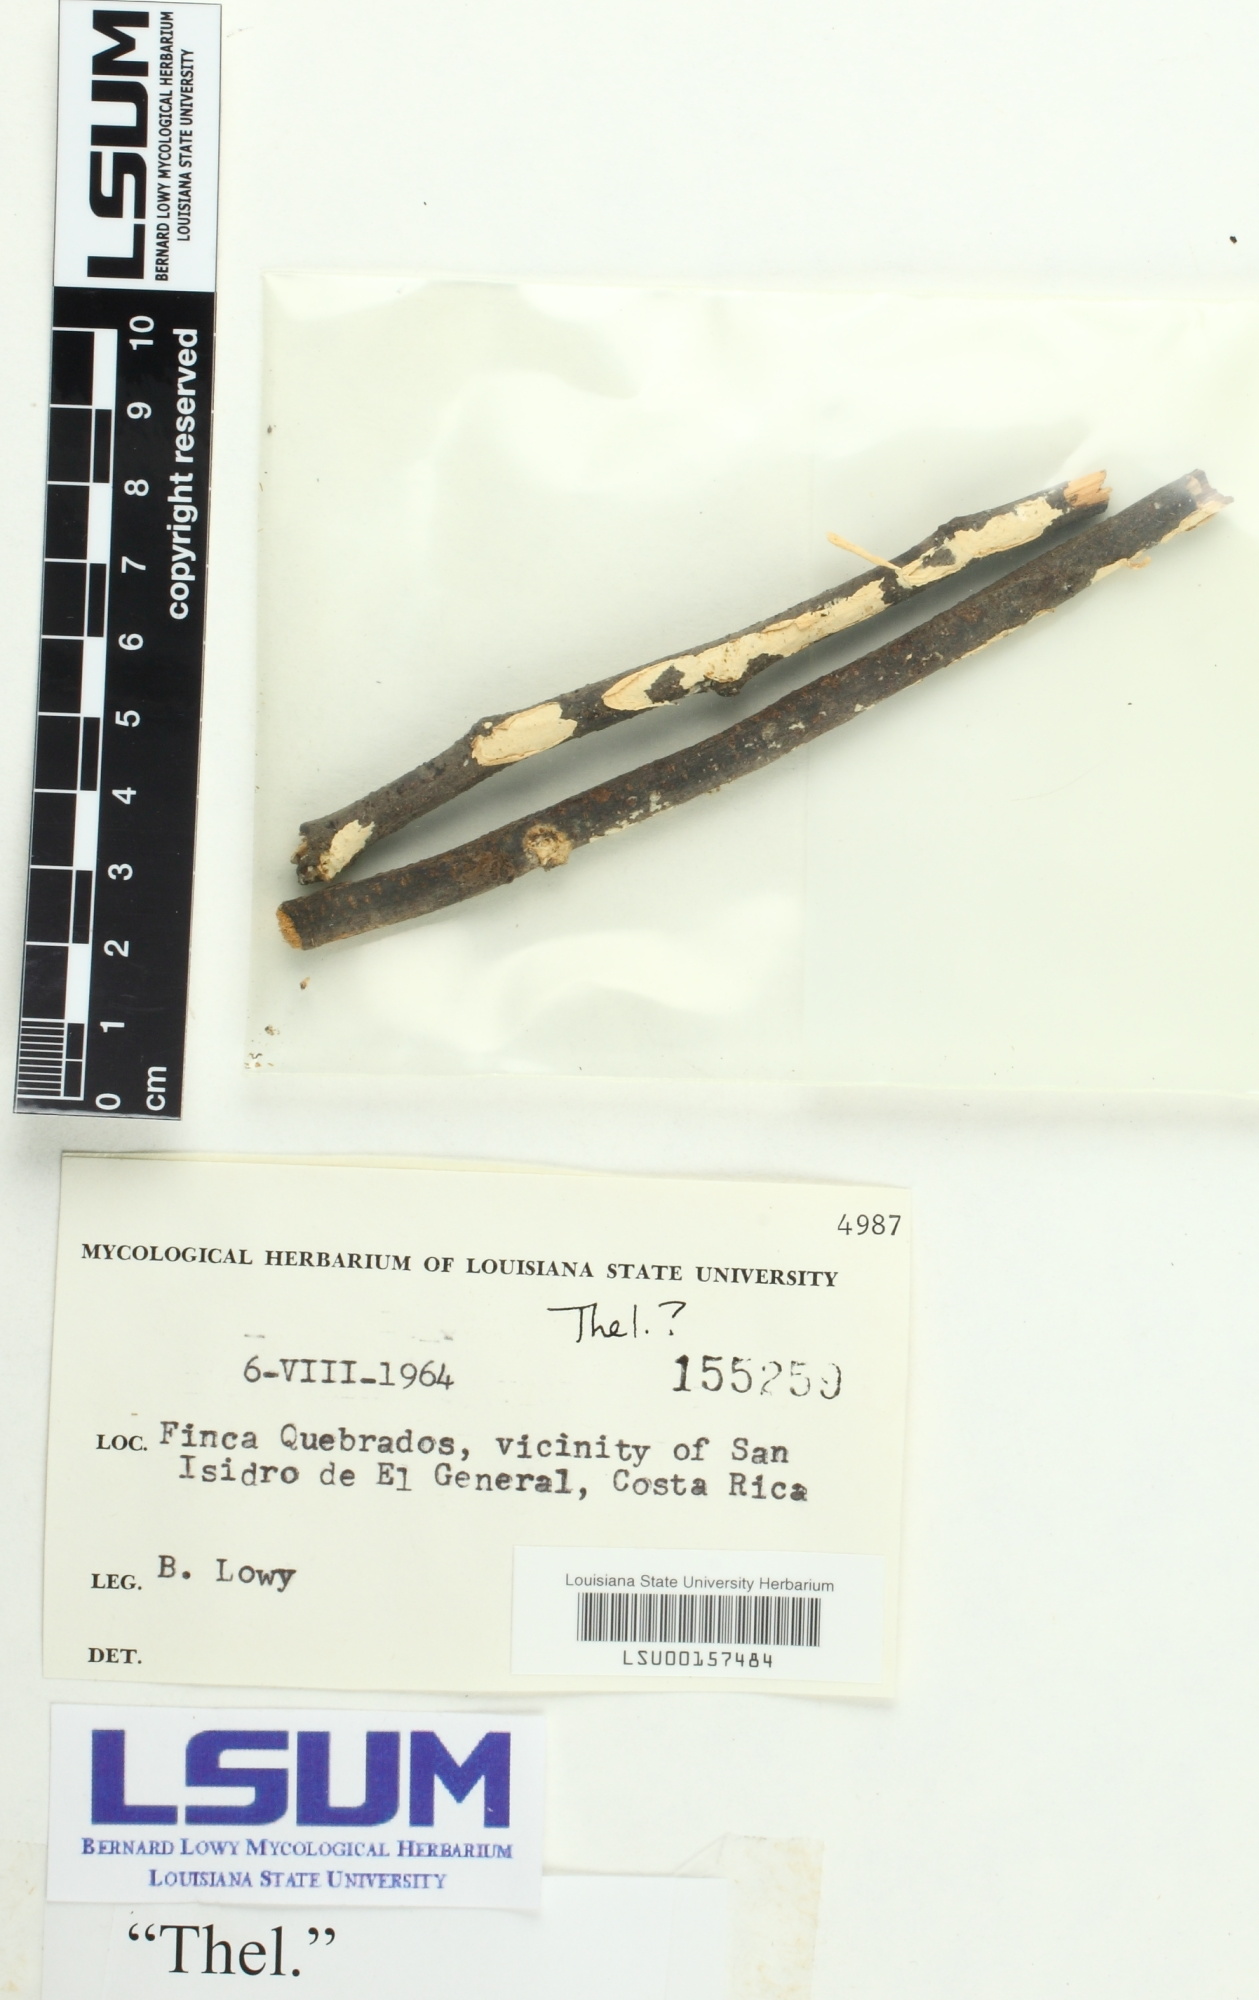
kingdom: Fungi
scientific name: Fungi
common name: Fungi
